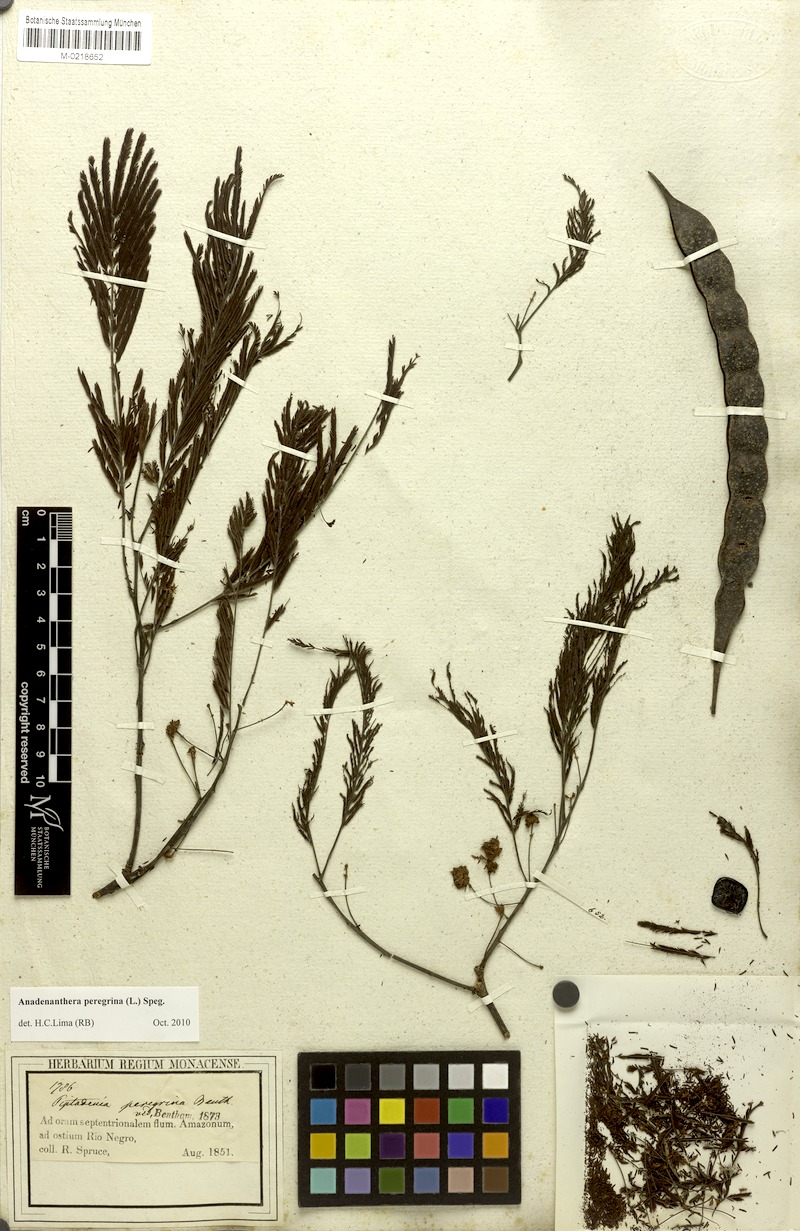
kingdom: Plantae
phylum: Tracheophyta
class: Magnoliopsida
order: Fabales
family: Fabaceae
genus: Anadenanthera
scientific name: Anadenanthera peregrina
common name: Cohoba
